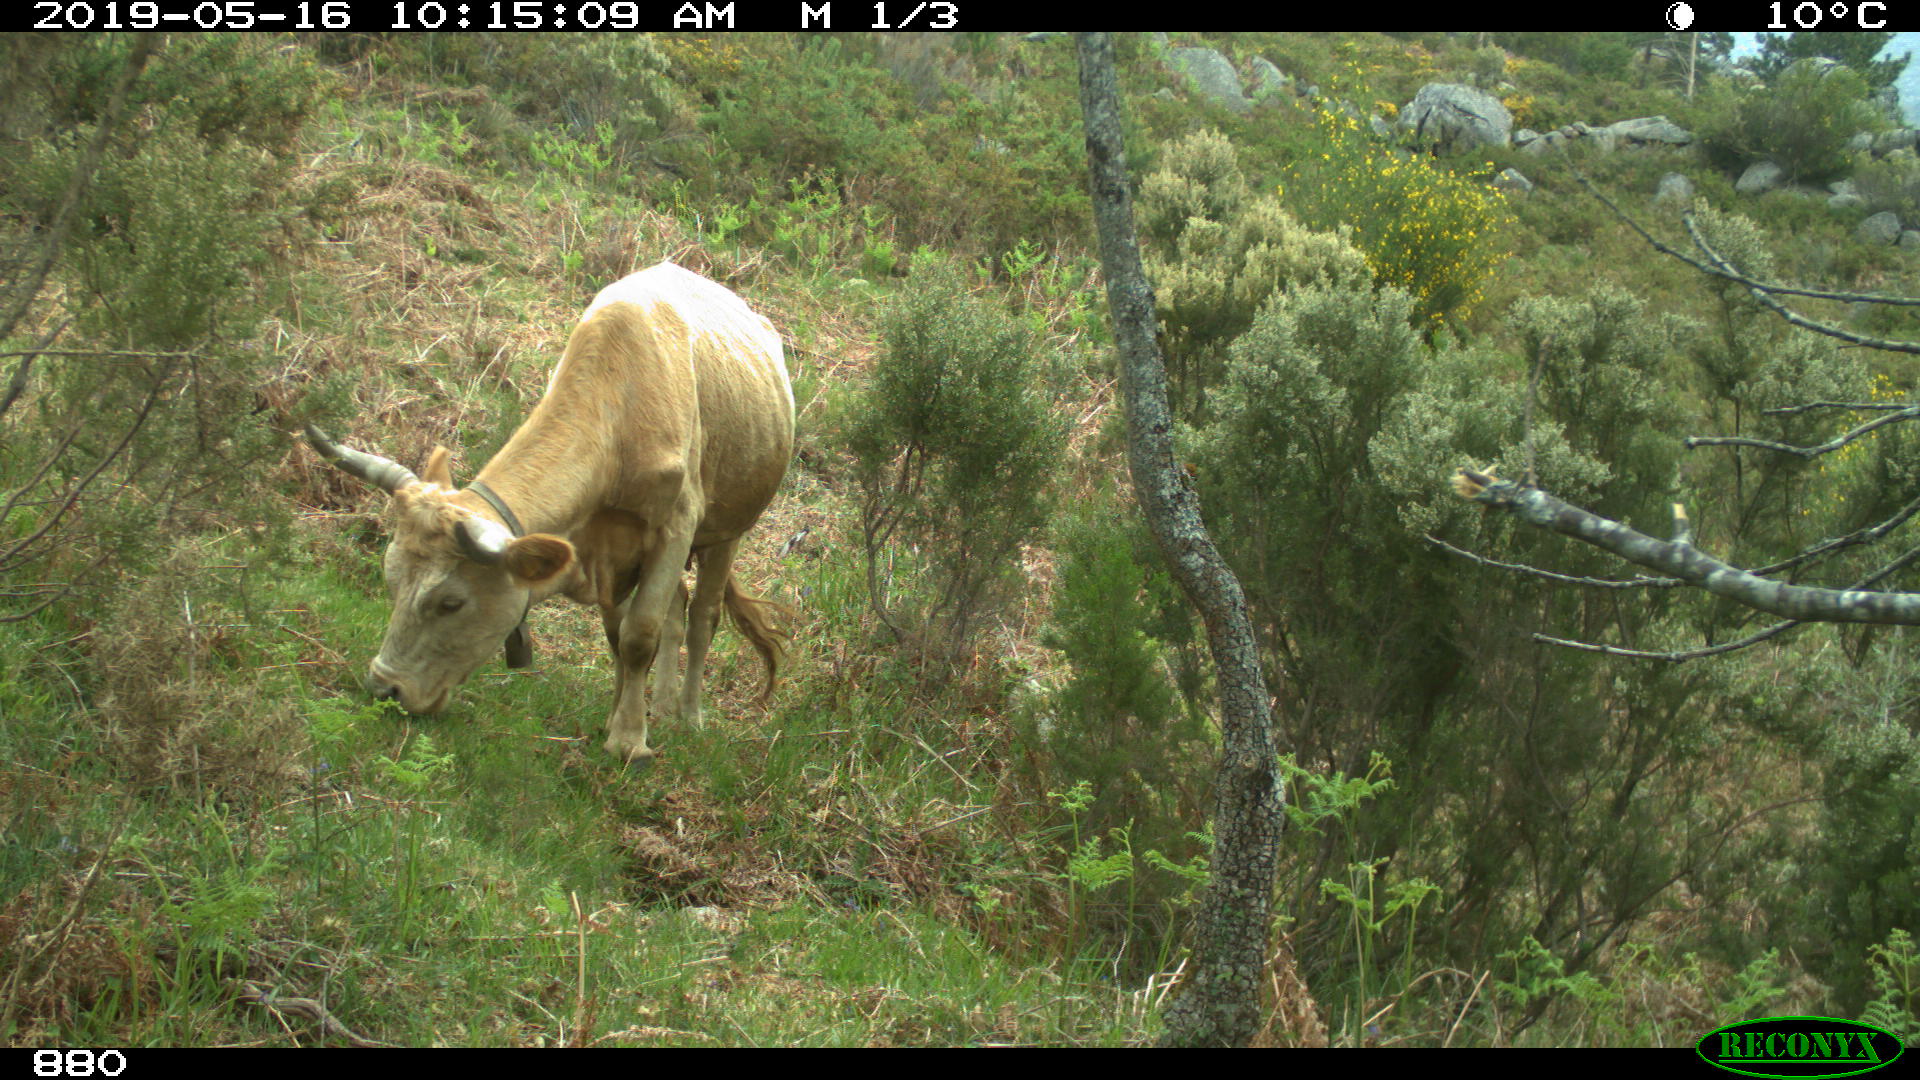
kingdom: Animalia
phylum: Chordata
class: Mammalia
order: Artiodactyla
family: Bovidae
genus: Bos
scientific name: Bos taurus
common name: Domesticated cattle
